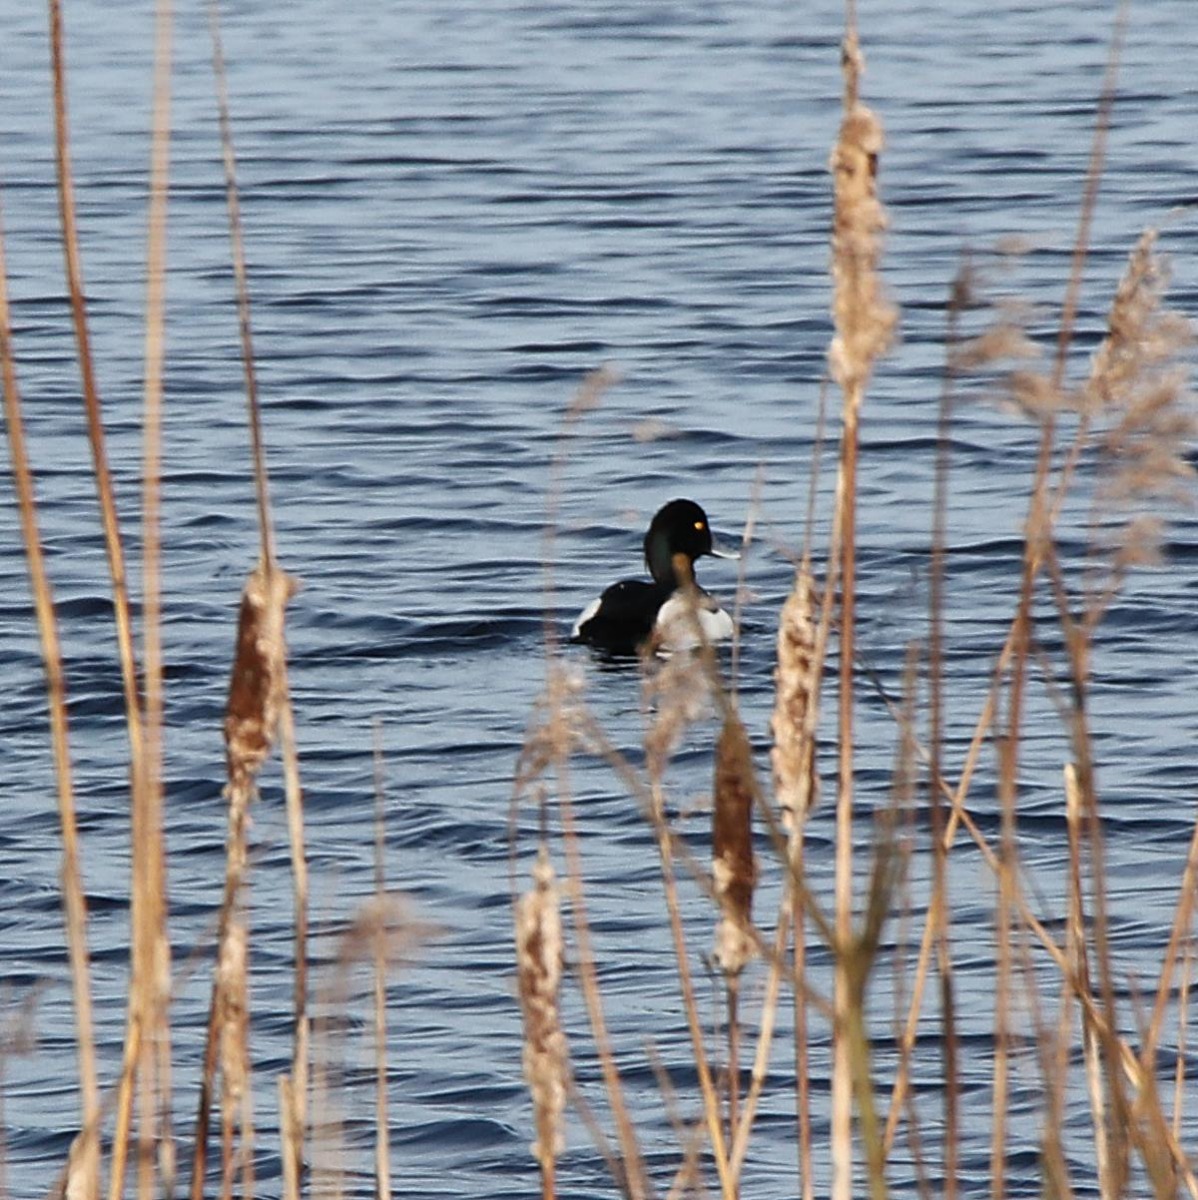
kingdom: Animalia
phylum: Chordata
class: Aves
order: Anseriformes
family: Anatidae
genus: Aythya
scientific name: Aythya fuligula
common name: Troldand
